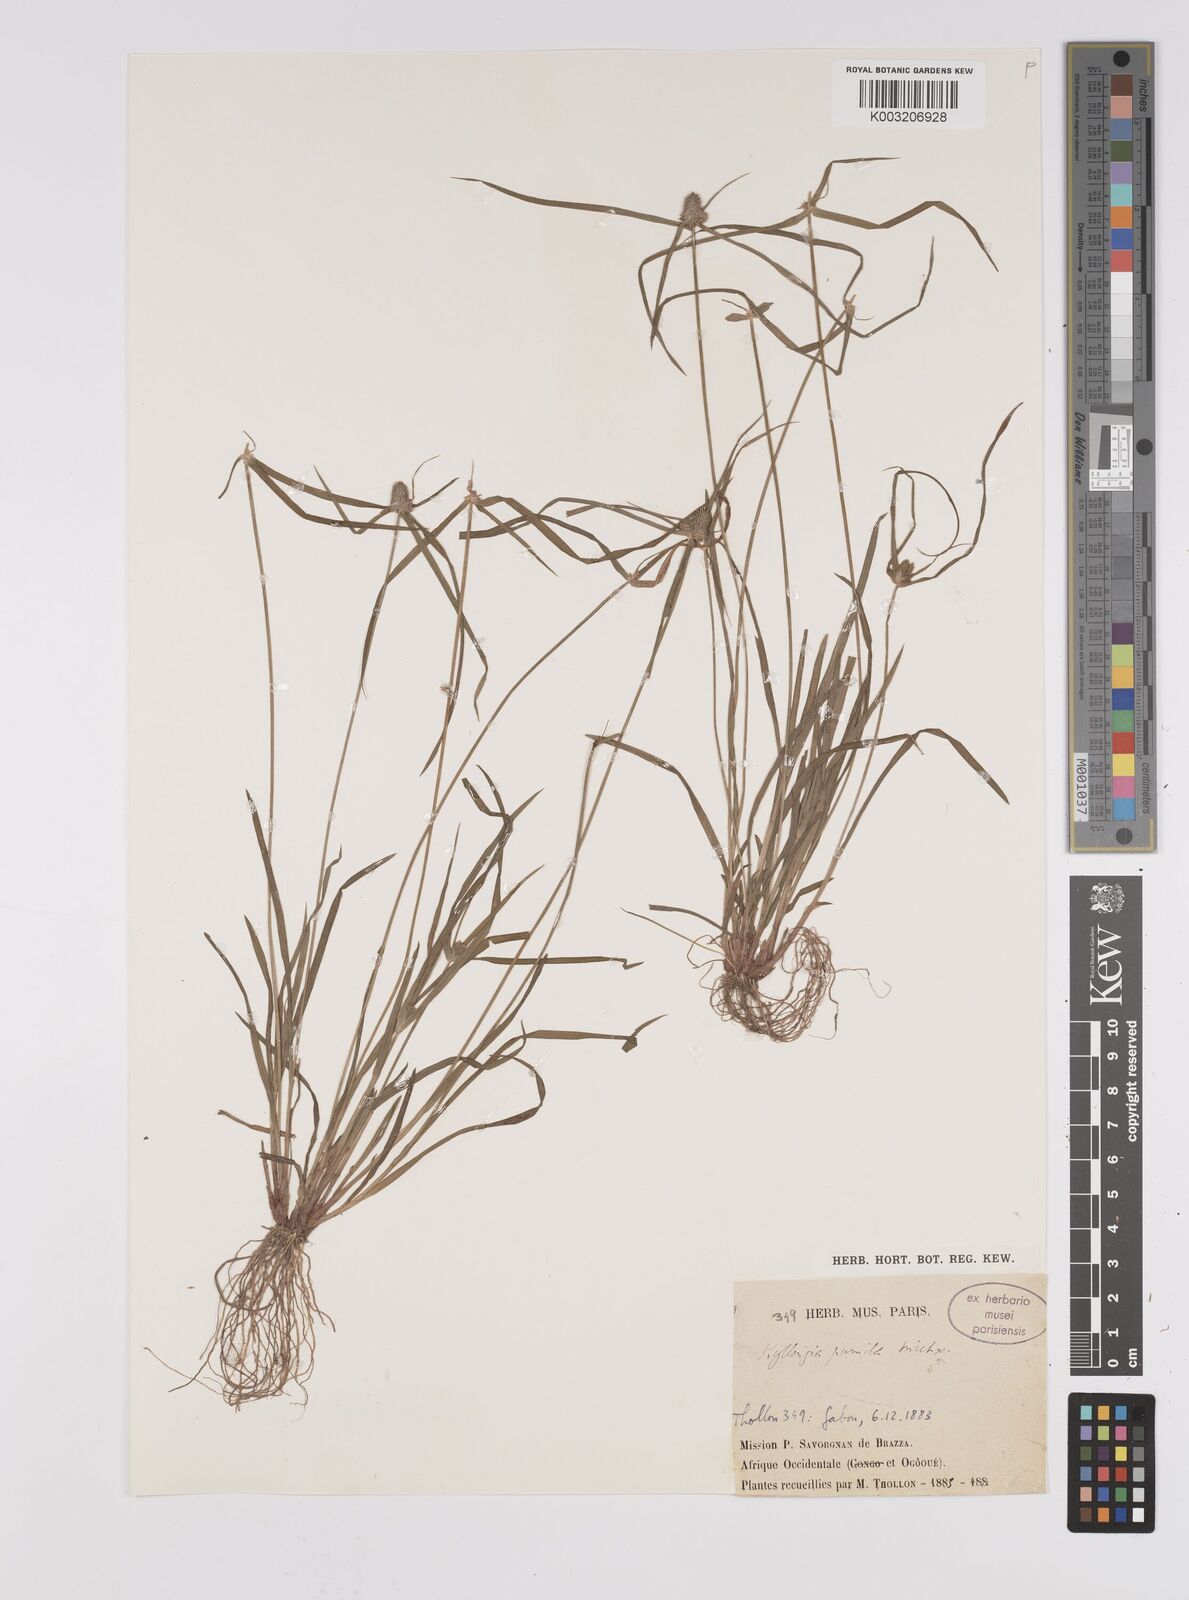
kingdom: Plantae
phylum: Tracheophyta
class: Liliopsida
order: Poales
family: Cyperaceae
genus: Cyperus
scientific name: Cyperus hortensis
